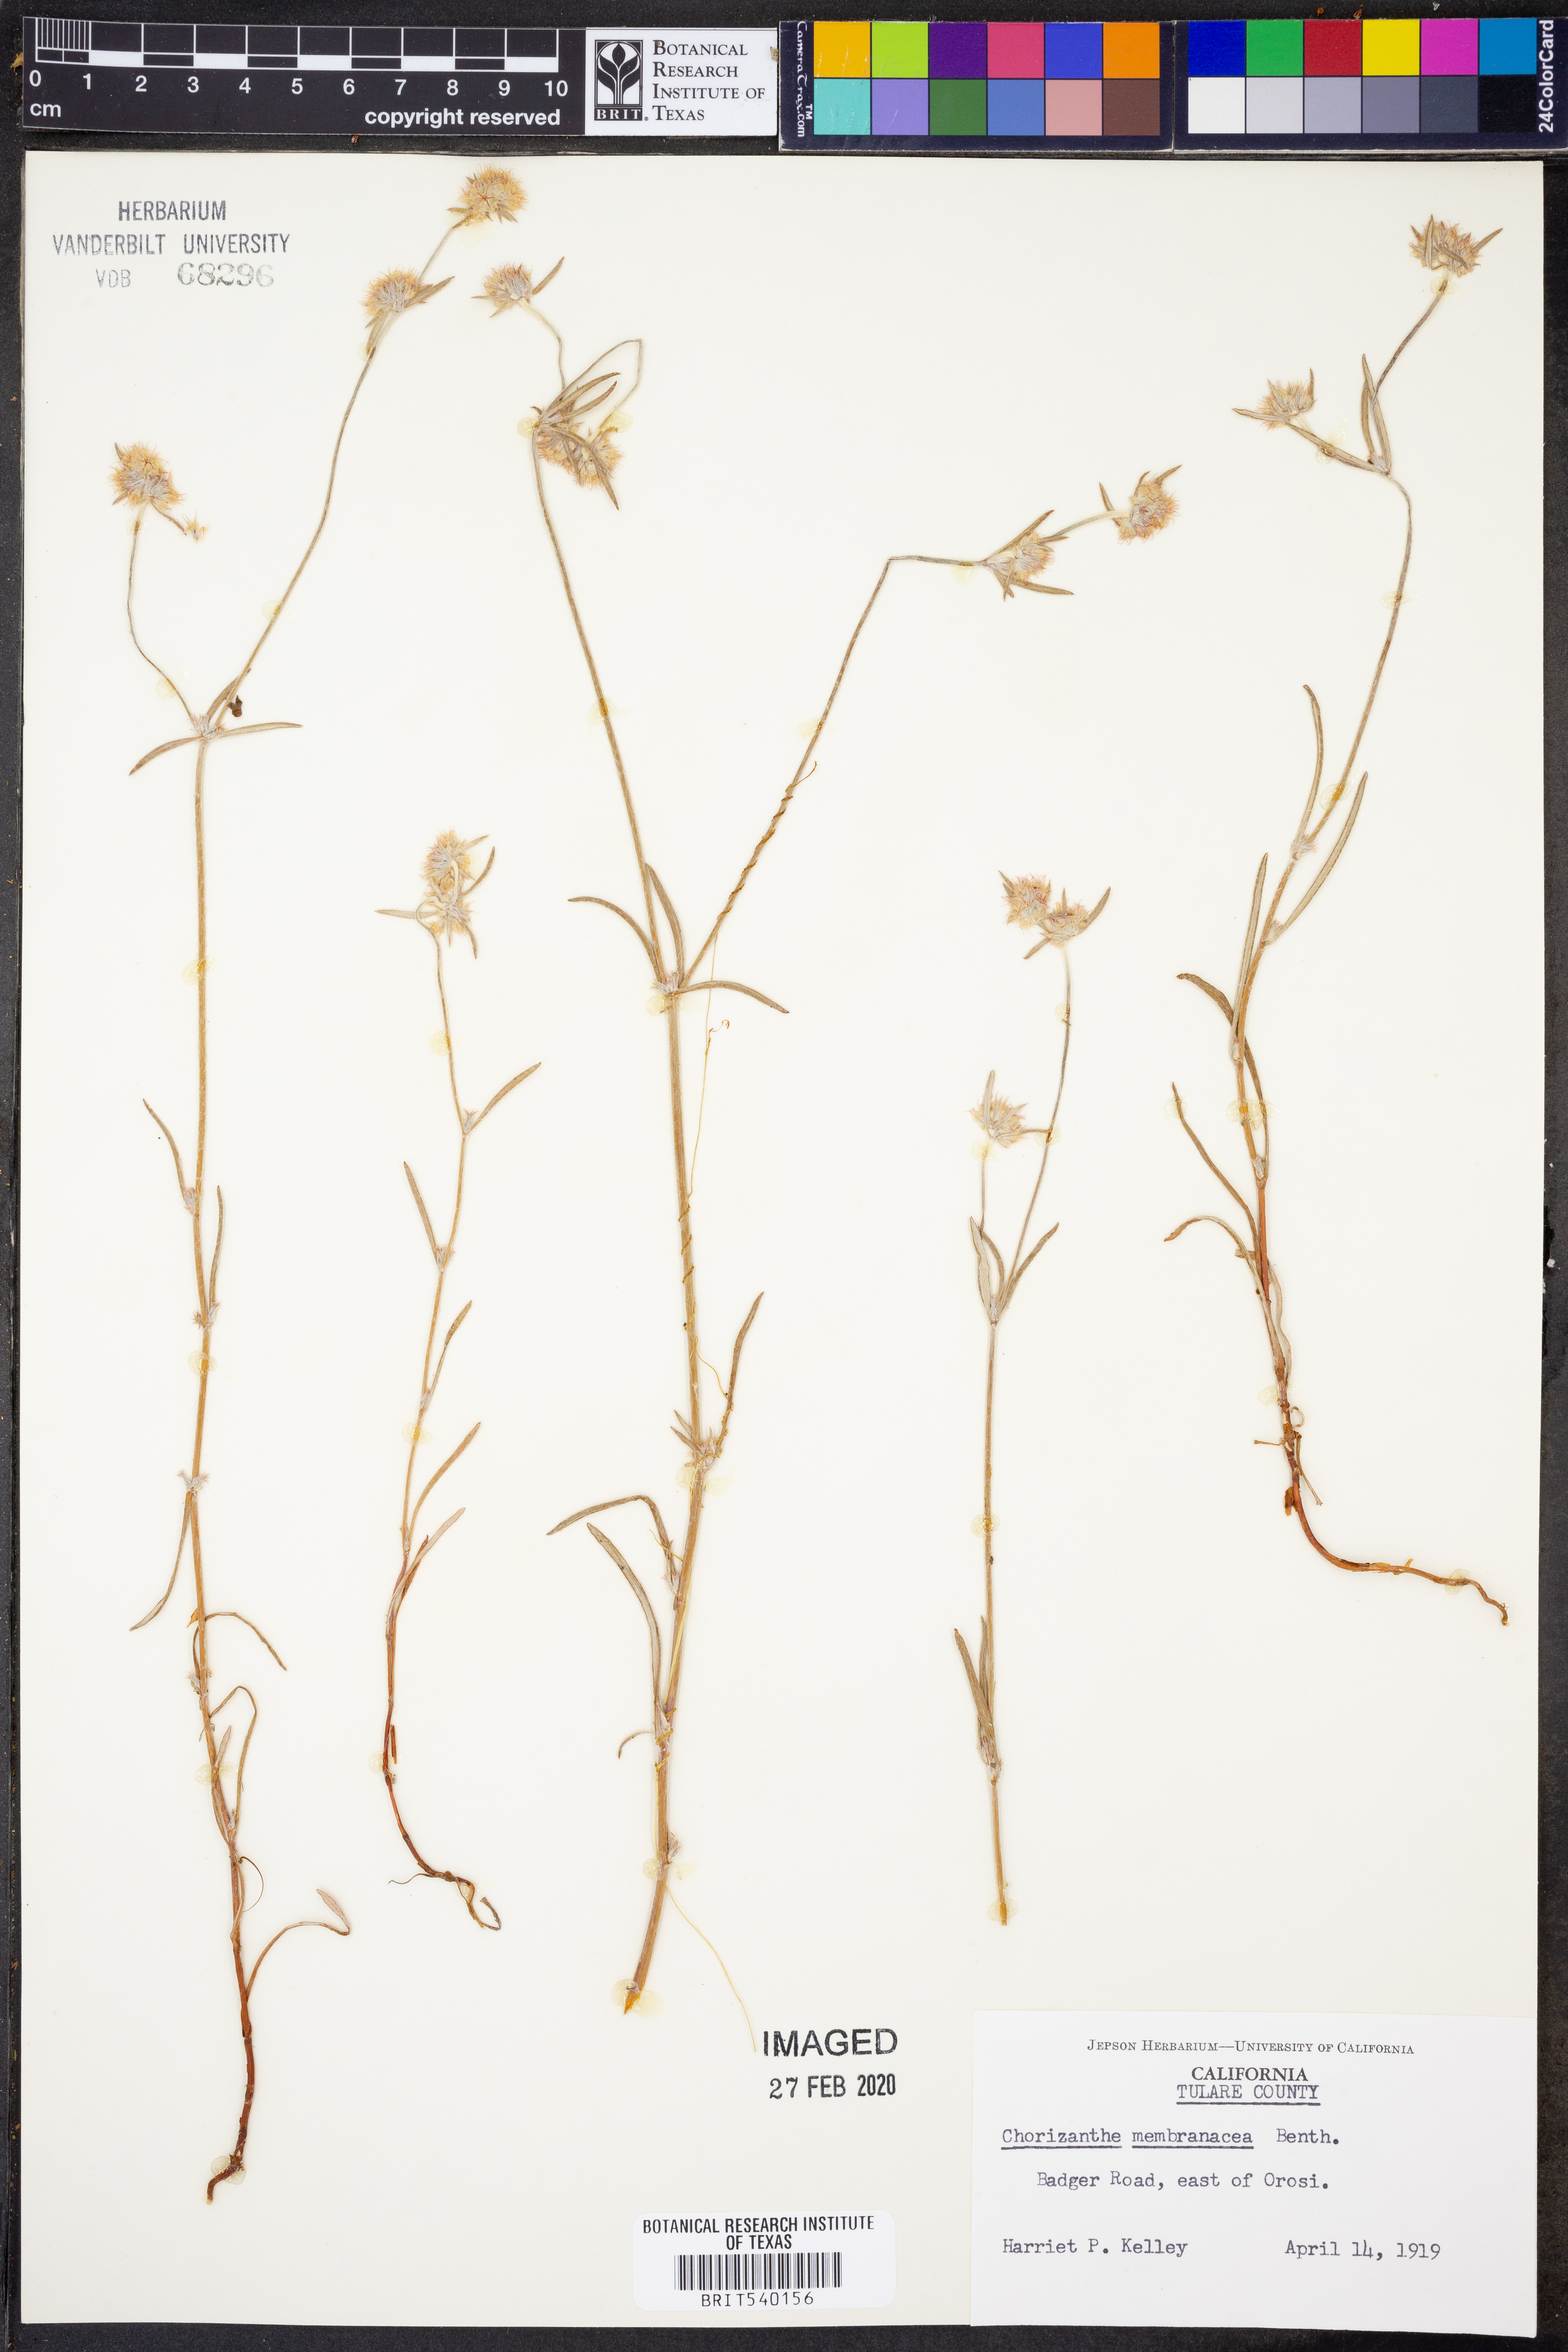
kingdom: Plantae
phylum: Tracheophyta
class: Magnoliopsida
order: Caryophyllales
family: Polygonaceae
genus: Chorizanthe
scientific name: Chorizanthe membranacea
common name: Pink spineflower
